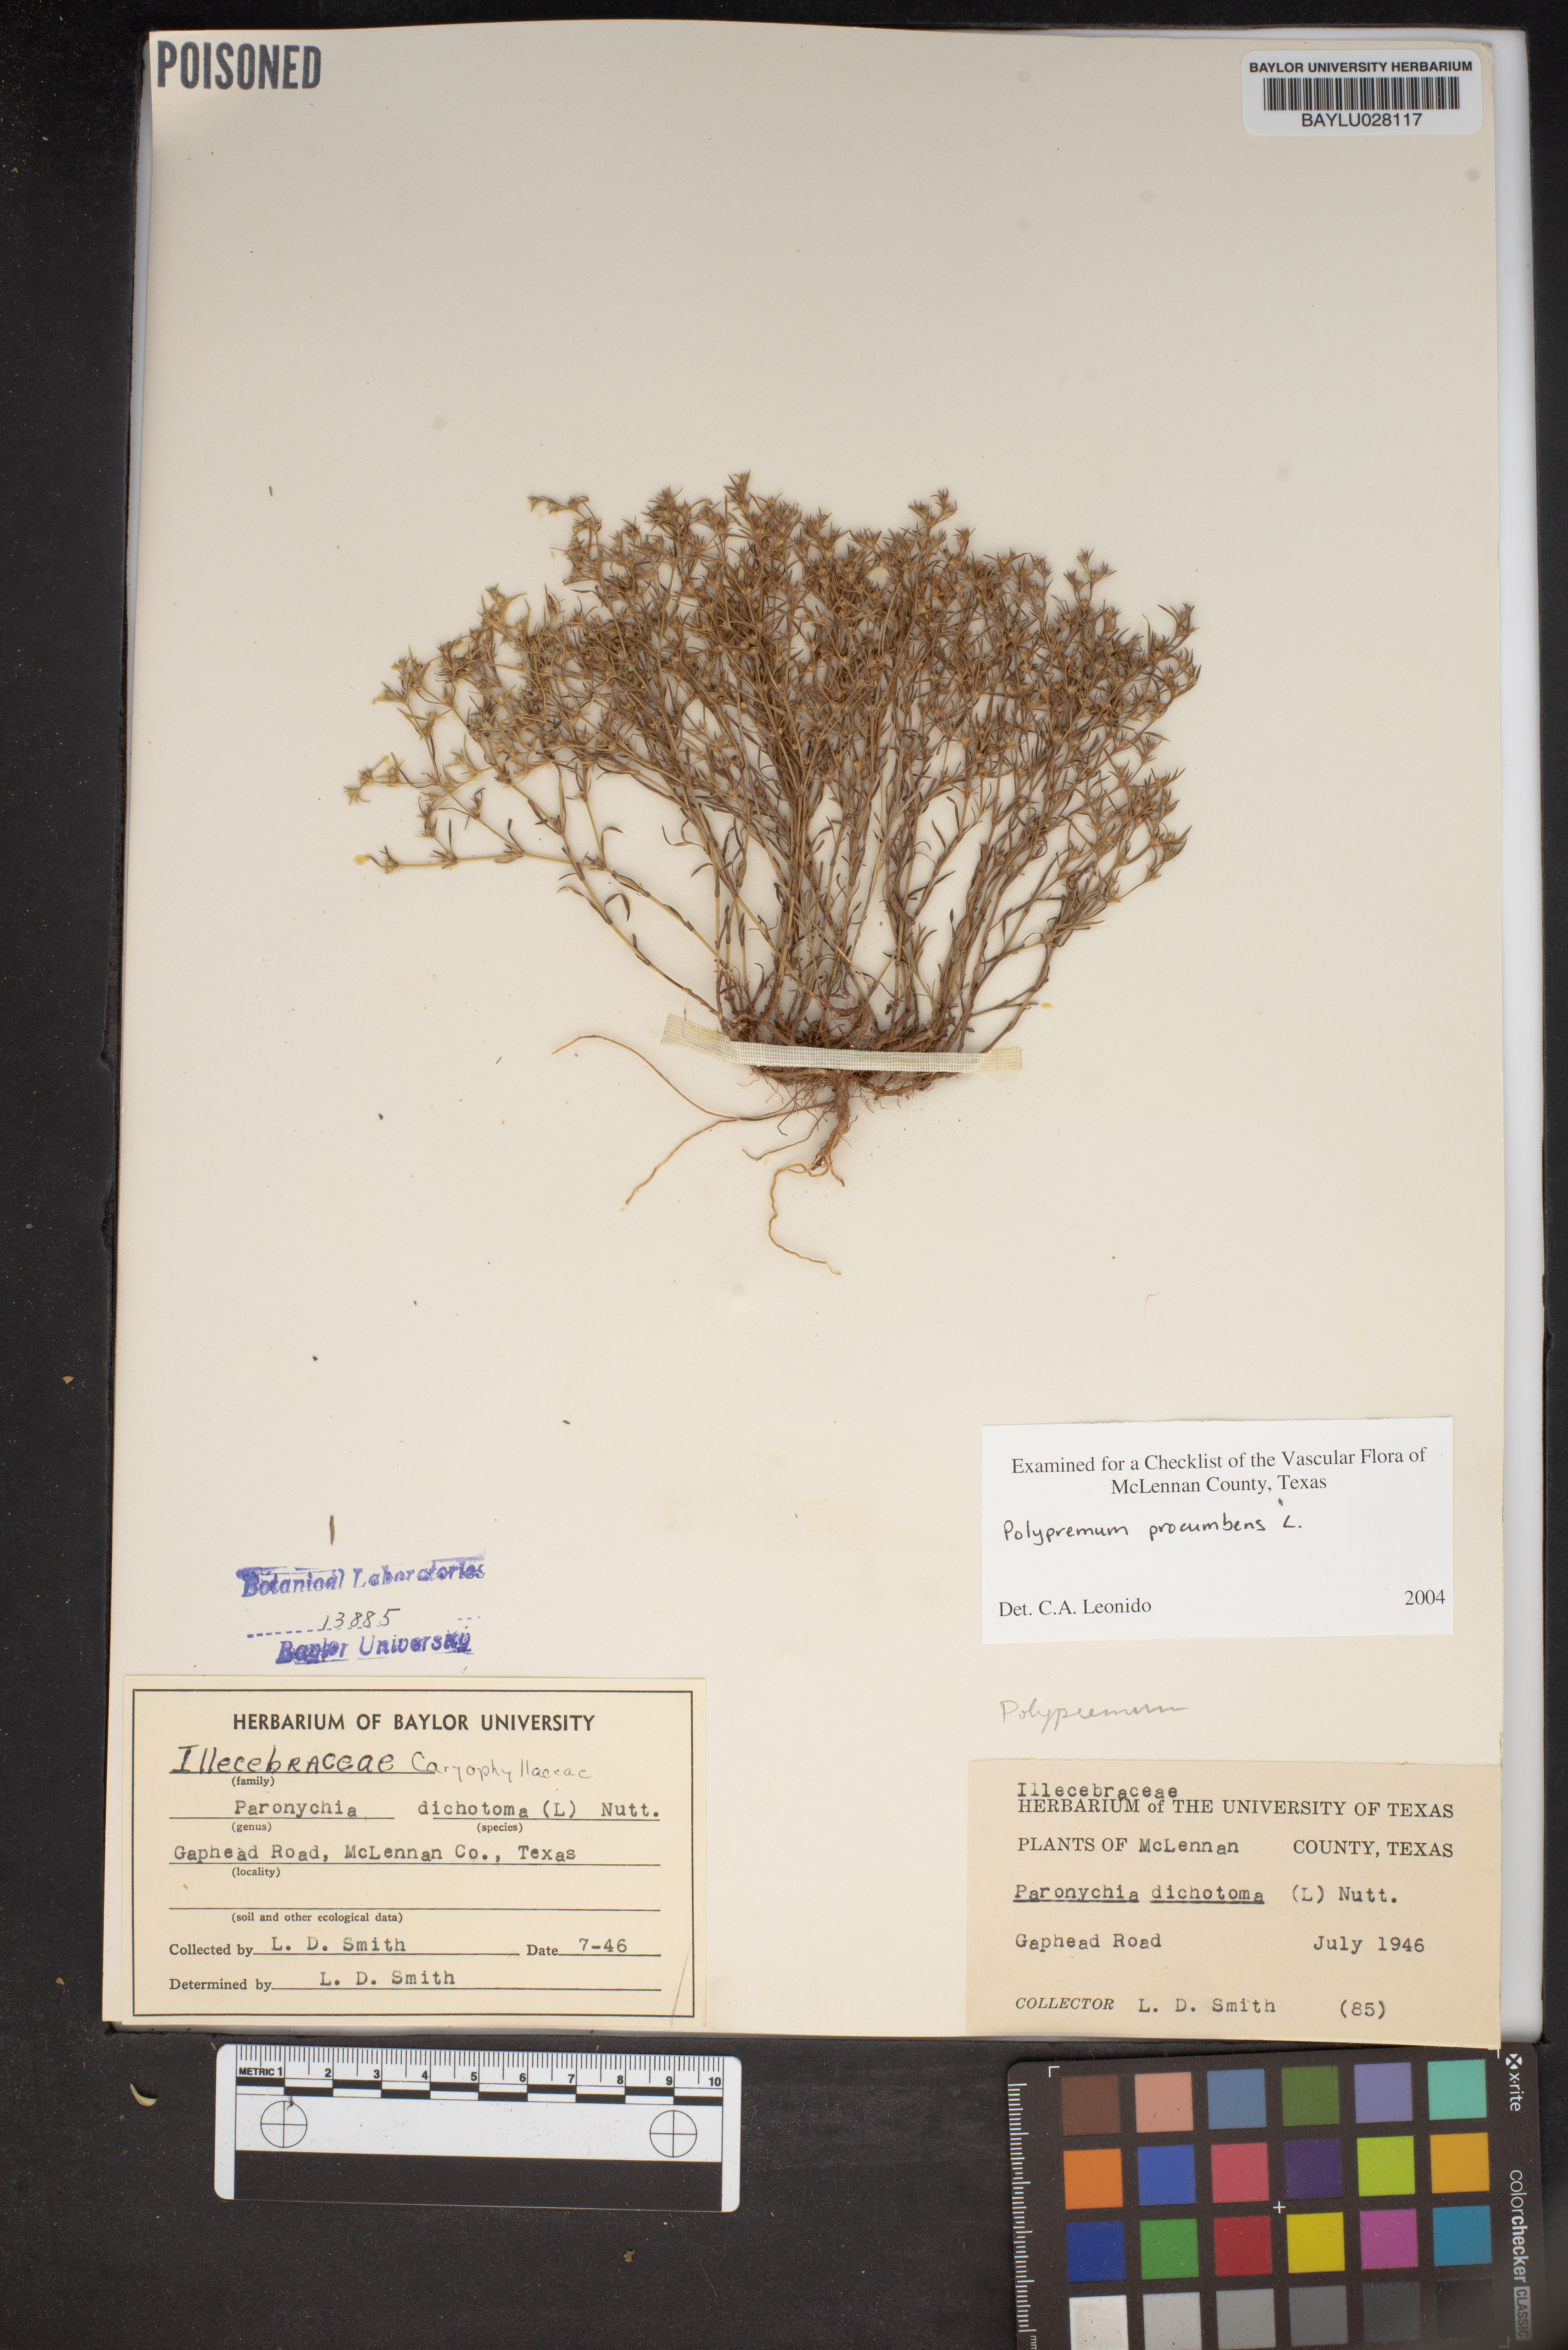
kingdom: Plantae
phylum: Tracheophyta
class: Magnoliopsida
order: Caryophyllales
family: Caryophyllaceae
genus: Paronychia
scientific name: Paronychia canadensis
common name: Canada forked nailwort
